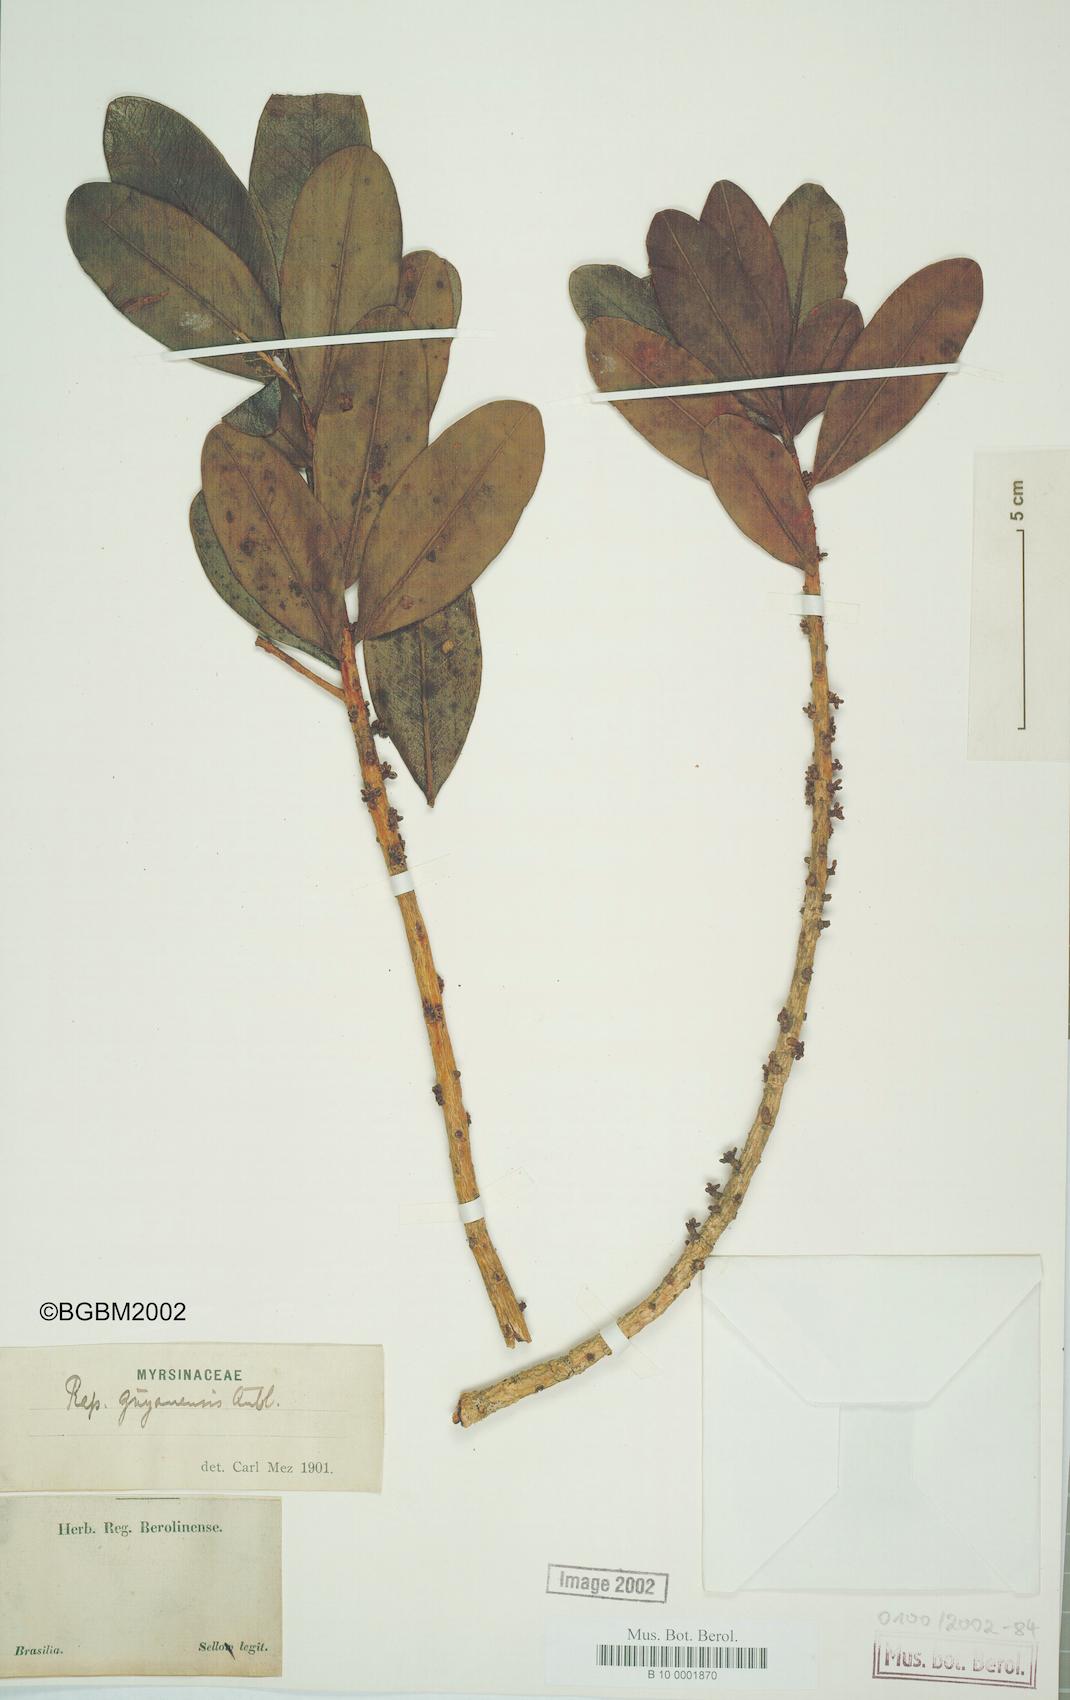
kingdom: Plantae
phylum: Tracheophyta
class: Magnoliopsida
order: Ericales
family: Primulaceae
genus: Myrsine
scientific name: Myrsine guianensis
